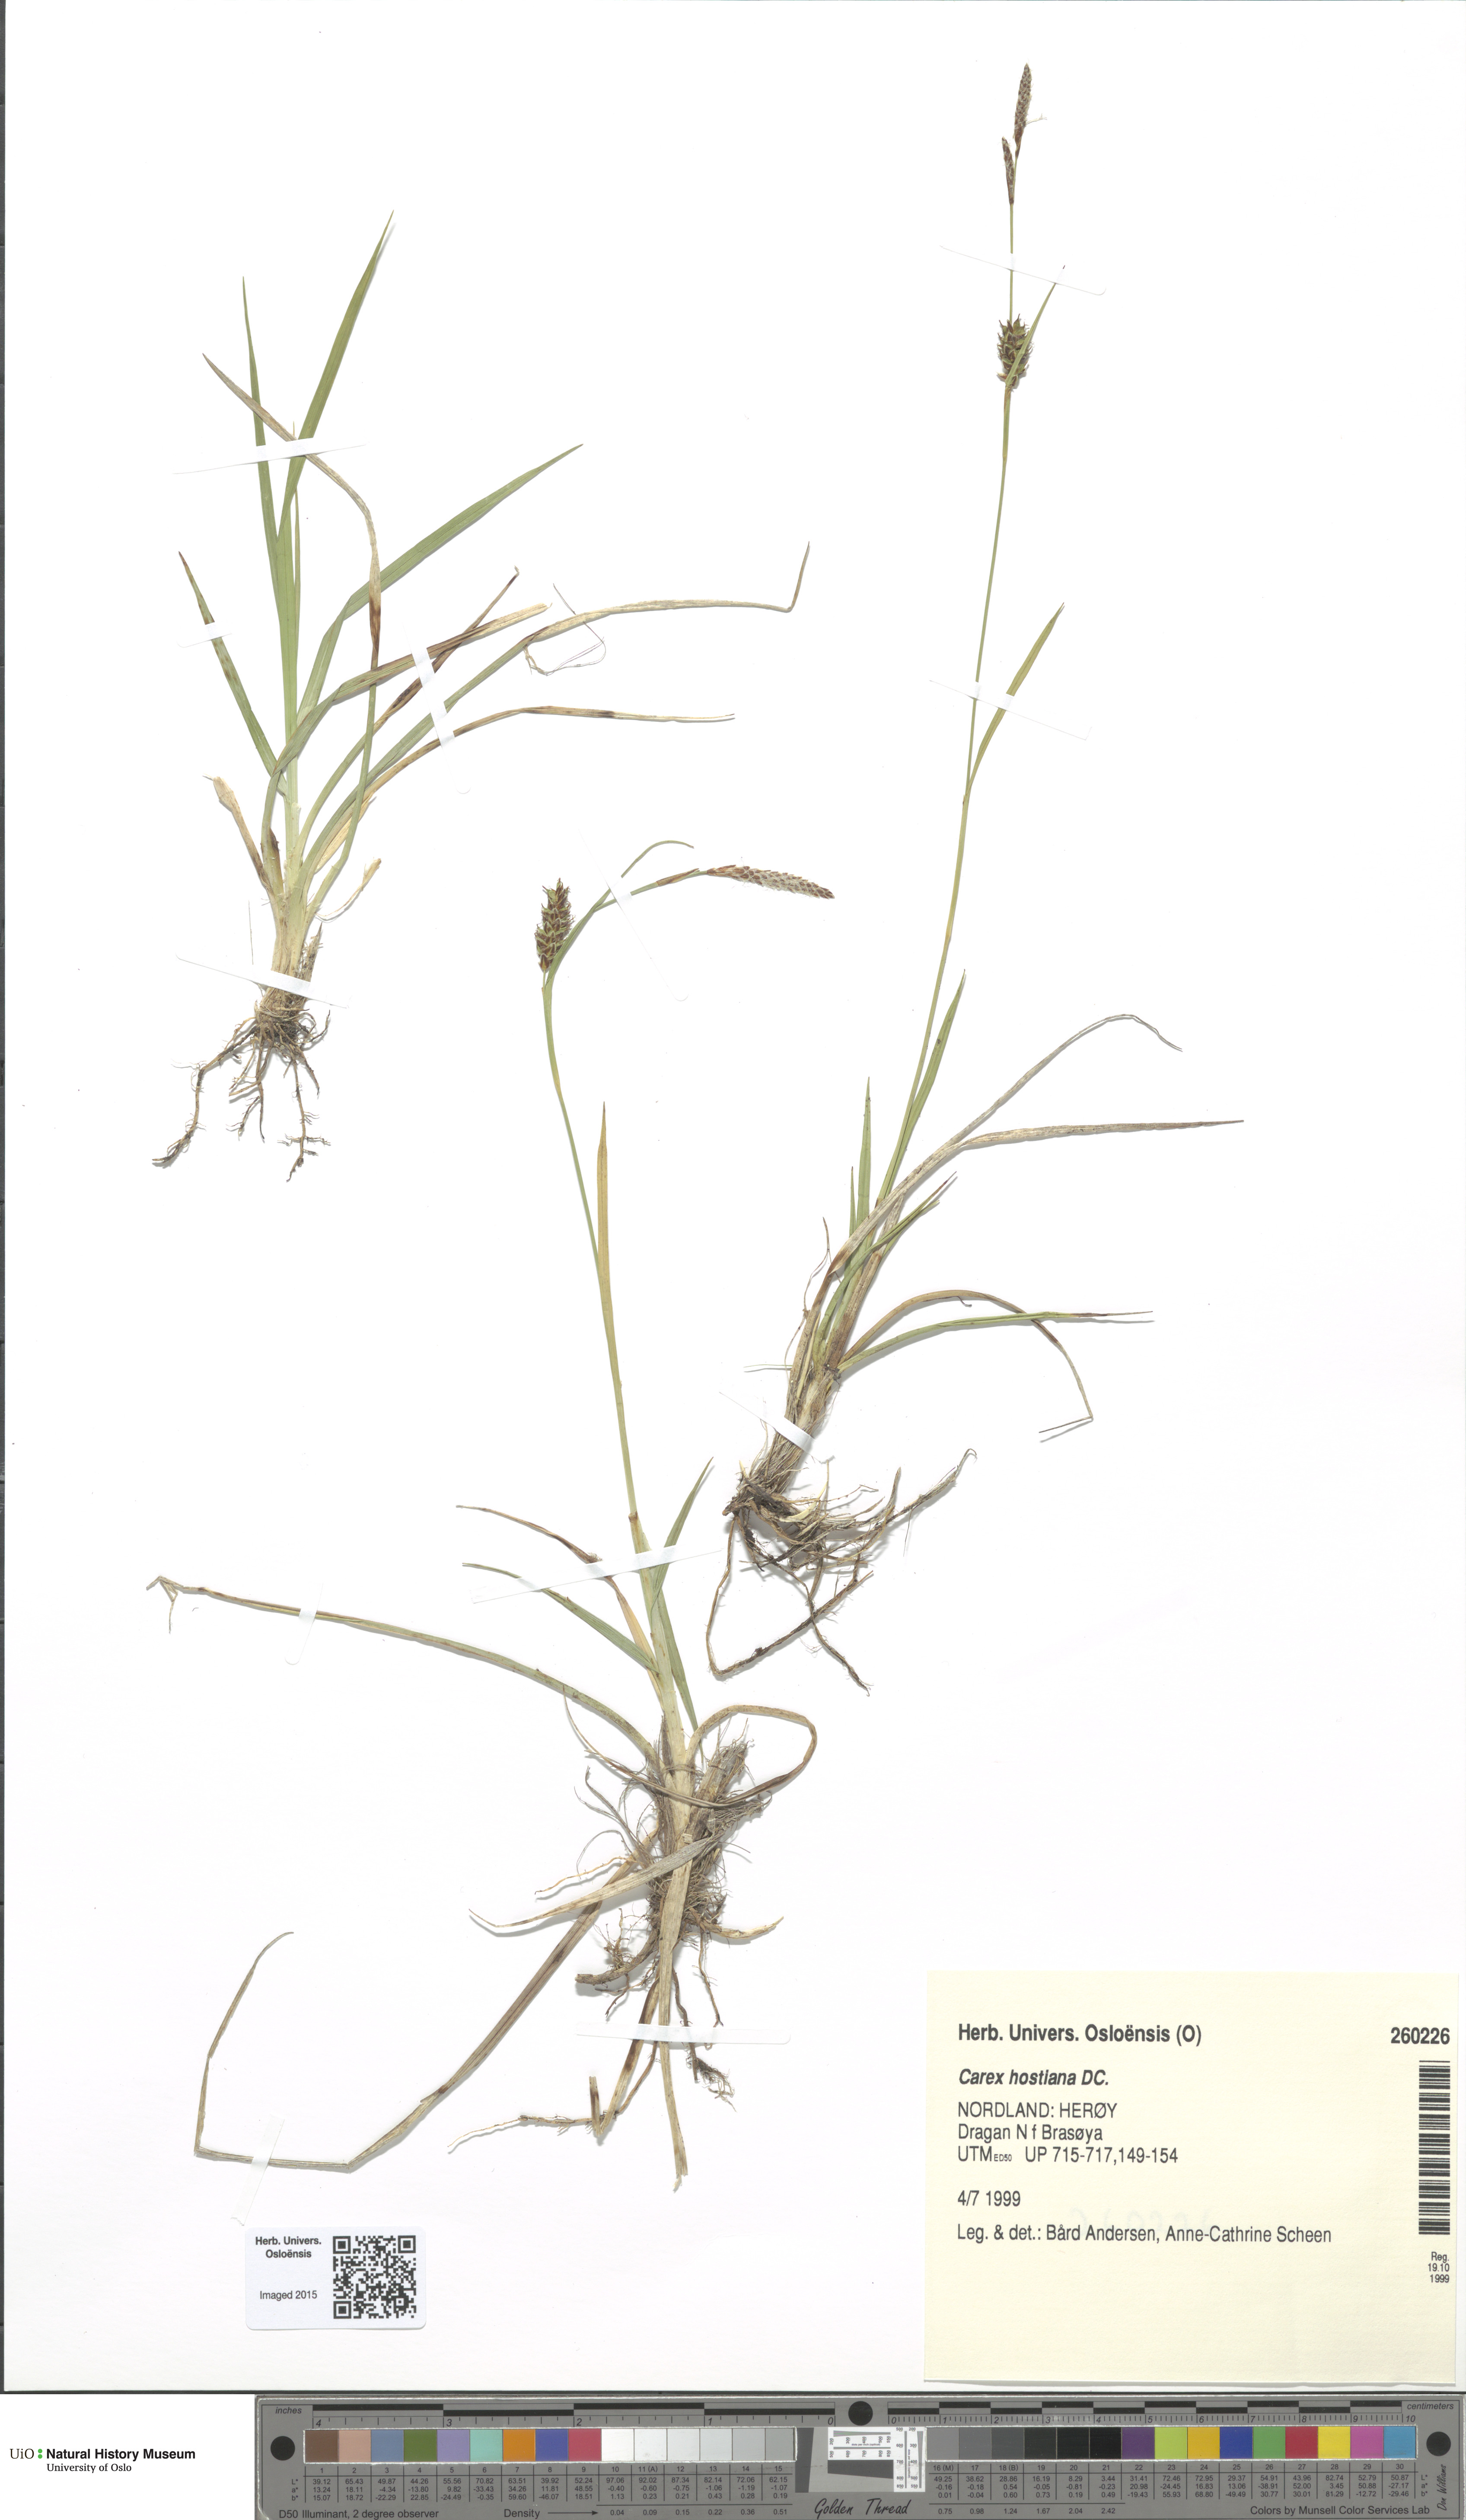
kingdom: Plantae
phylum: Tracheophyta
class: Liliopsida
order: Poales
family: Cyperaceae
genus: Carex
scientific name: Carex hostiana
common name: Tawny sedge
